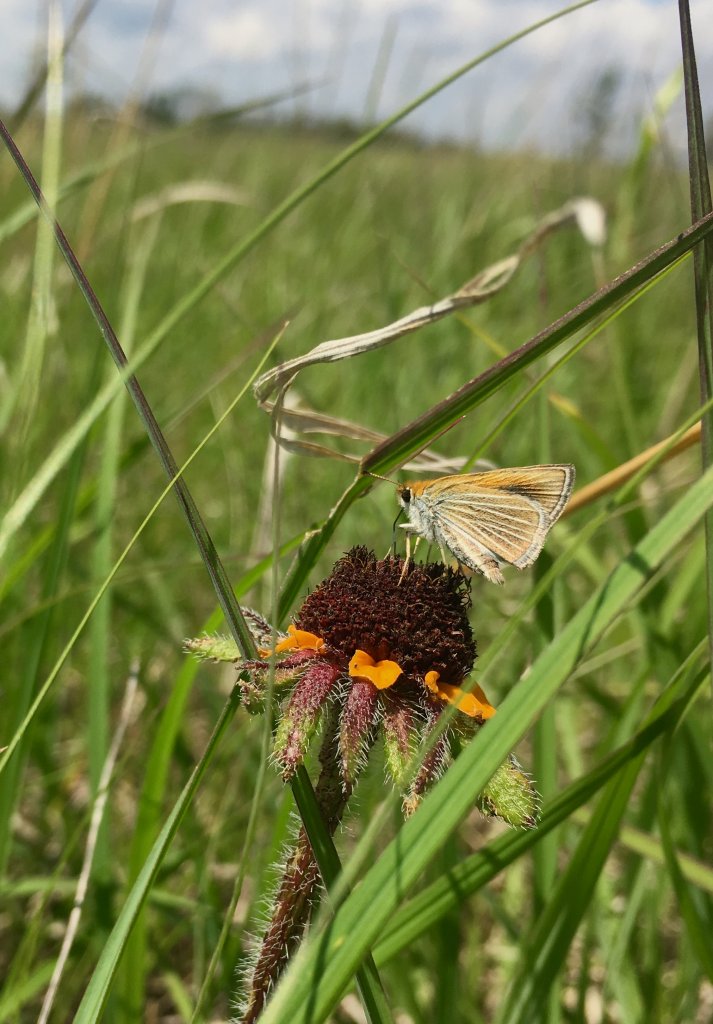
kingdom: Animalia
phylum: Arthropoda
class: Insecta
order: Lepidoptera
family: Hesperiidae
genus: Oarisma
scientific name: Oarisma poweshiek
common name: Powesheik Skipperling
